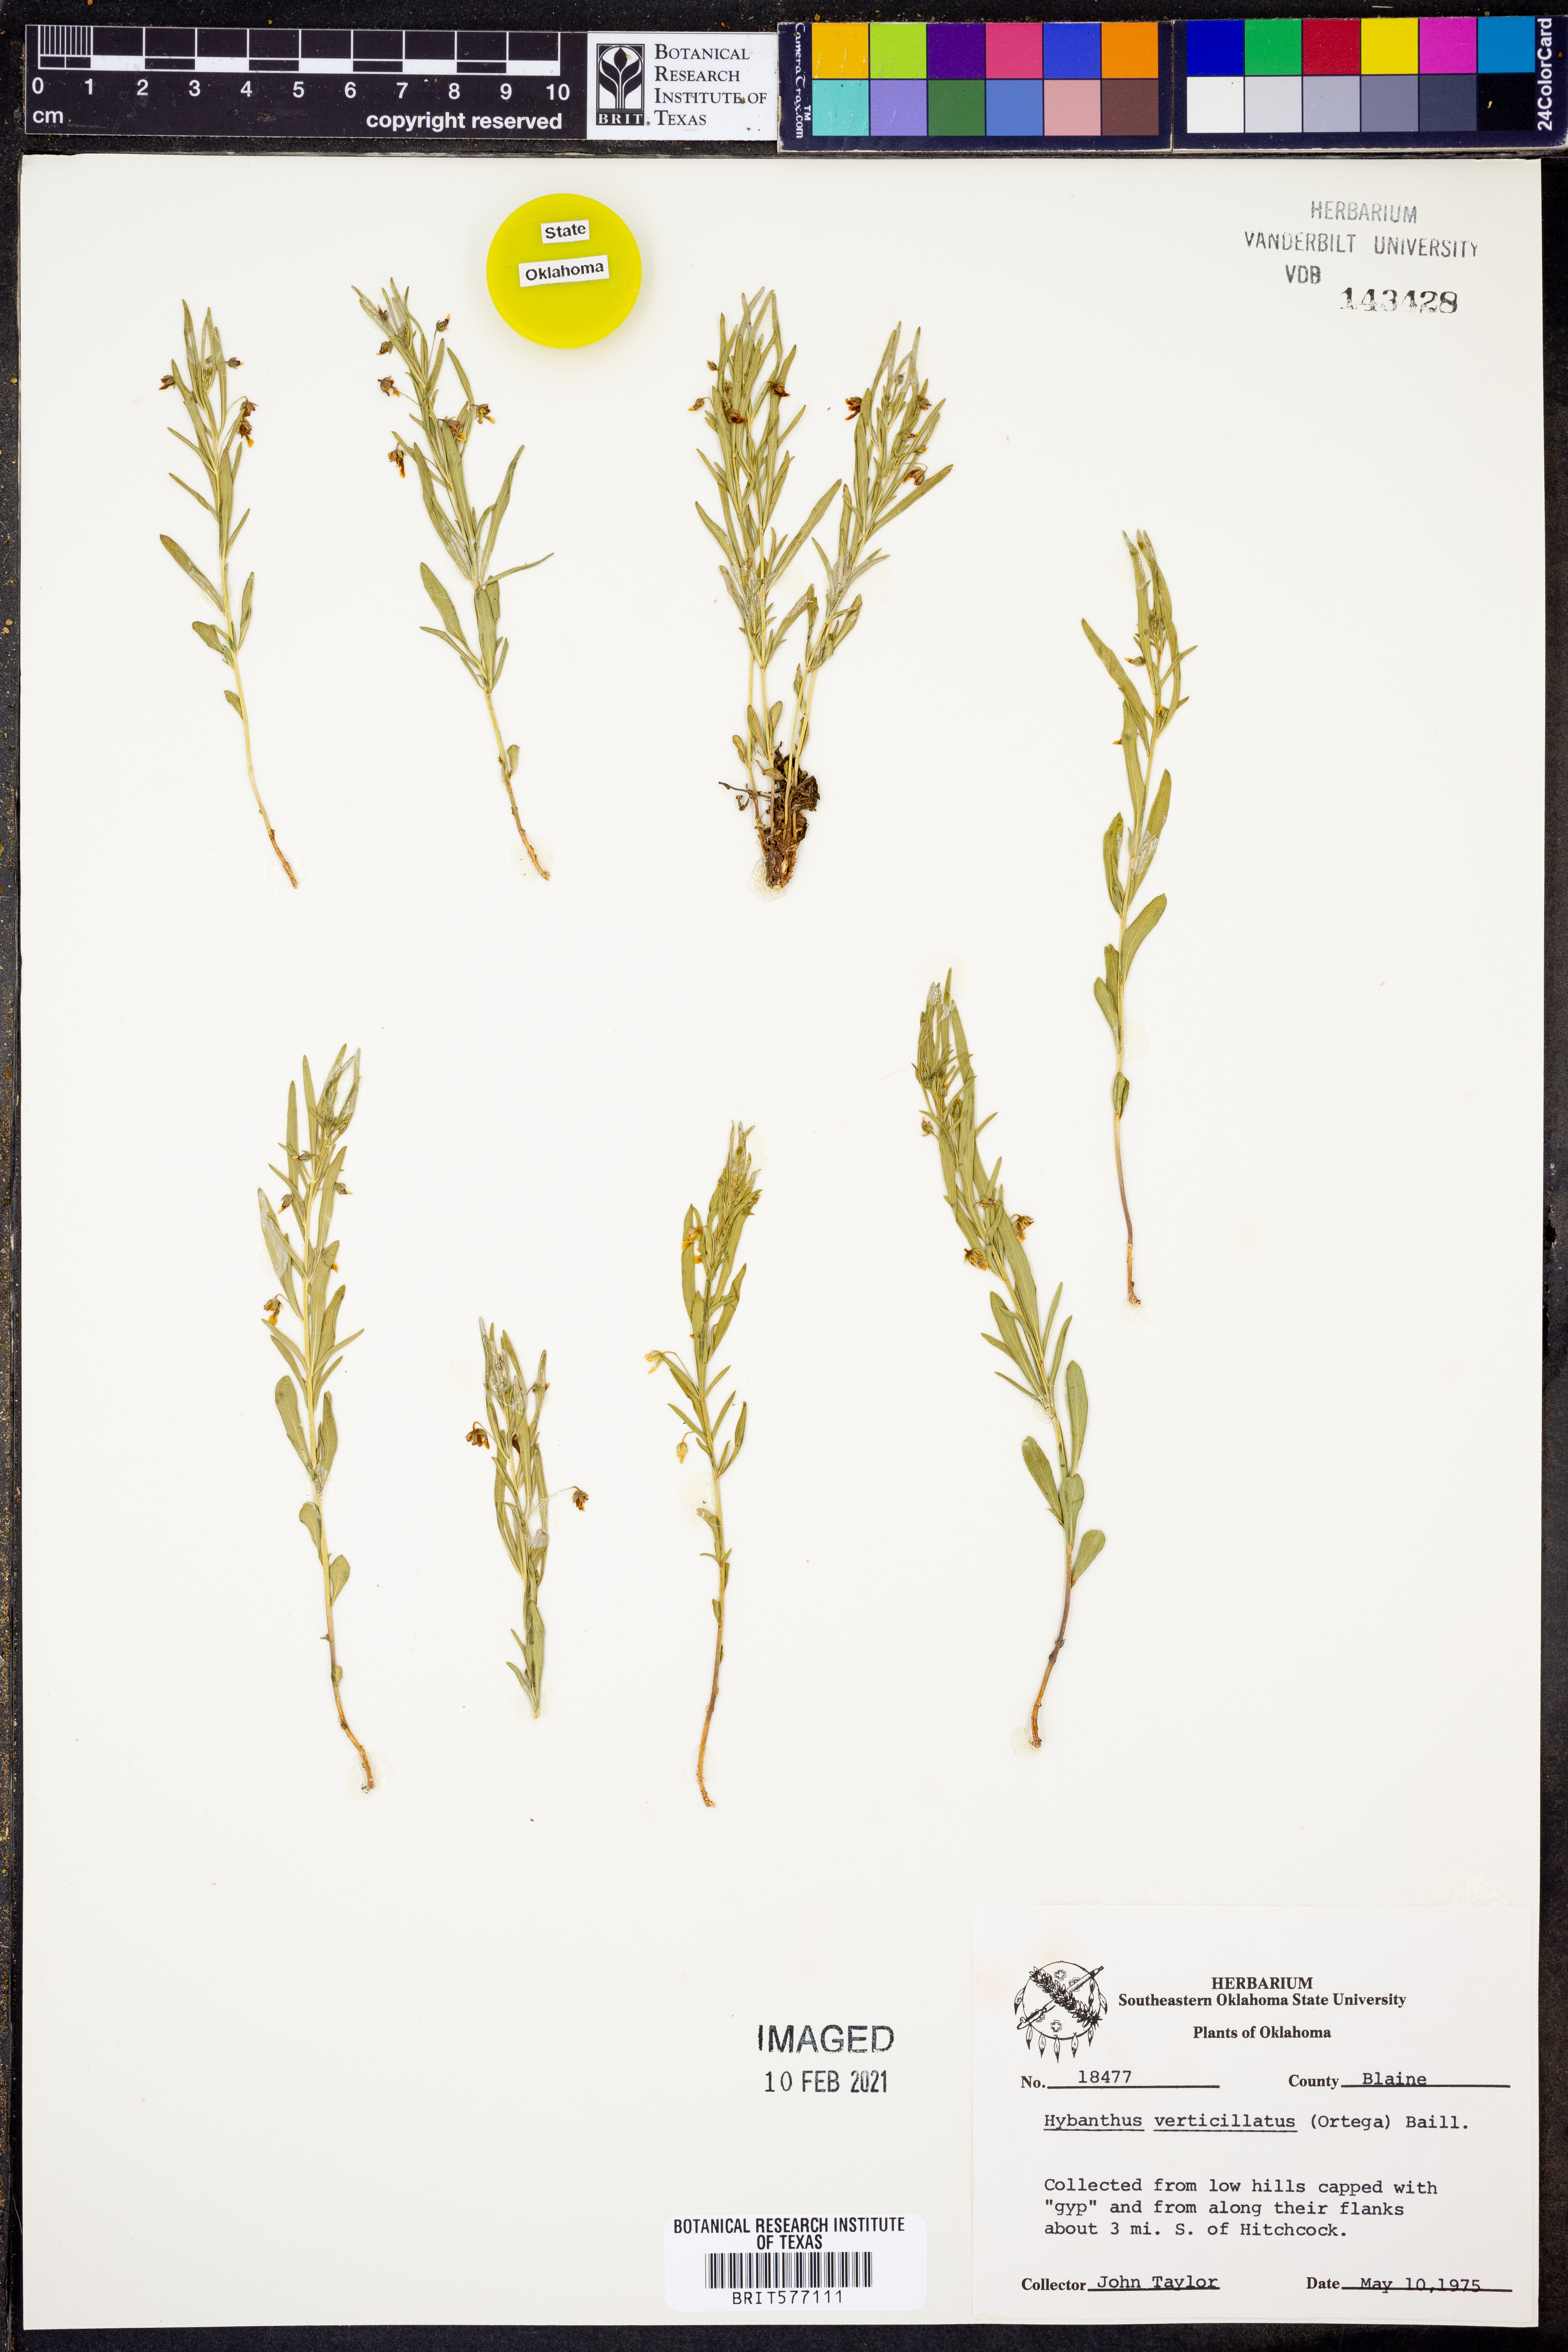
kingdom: Plantae
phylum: Tracheophyta
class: Magnoliopsida
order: Malpighiales
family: Violaceae
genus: Pombalia
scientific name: Pombalia verticillata
